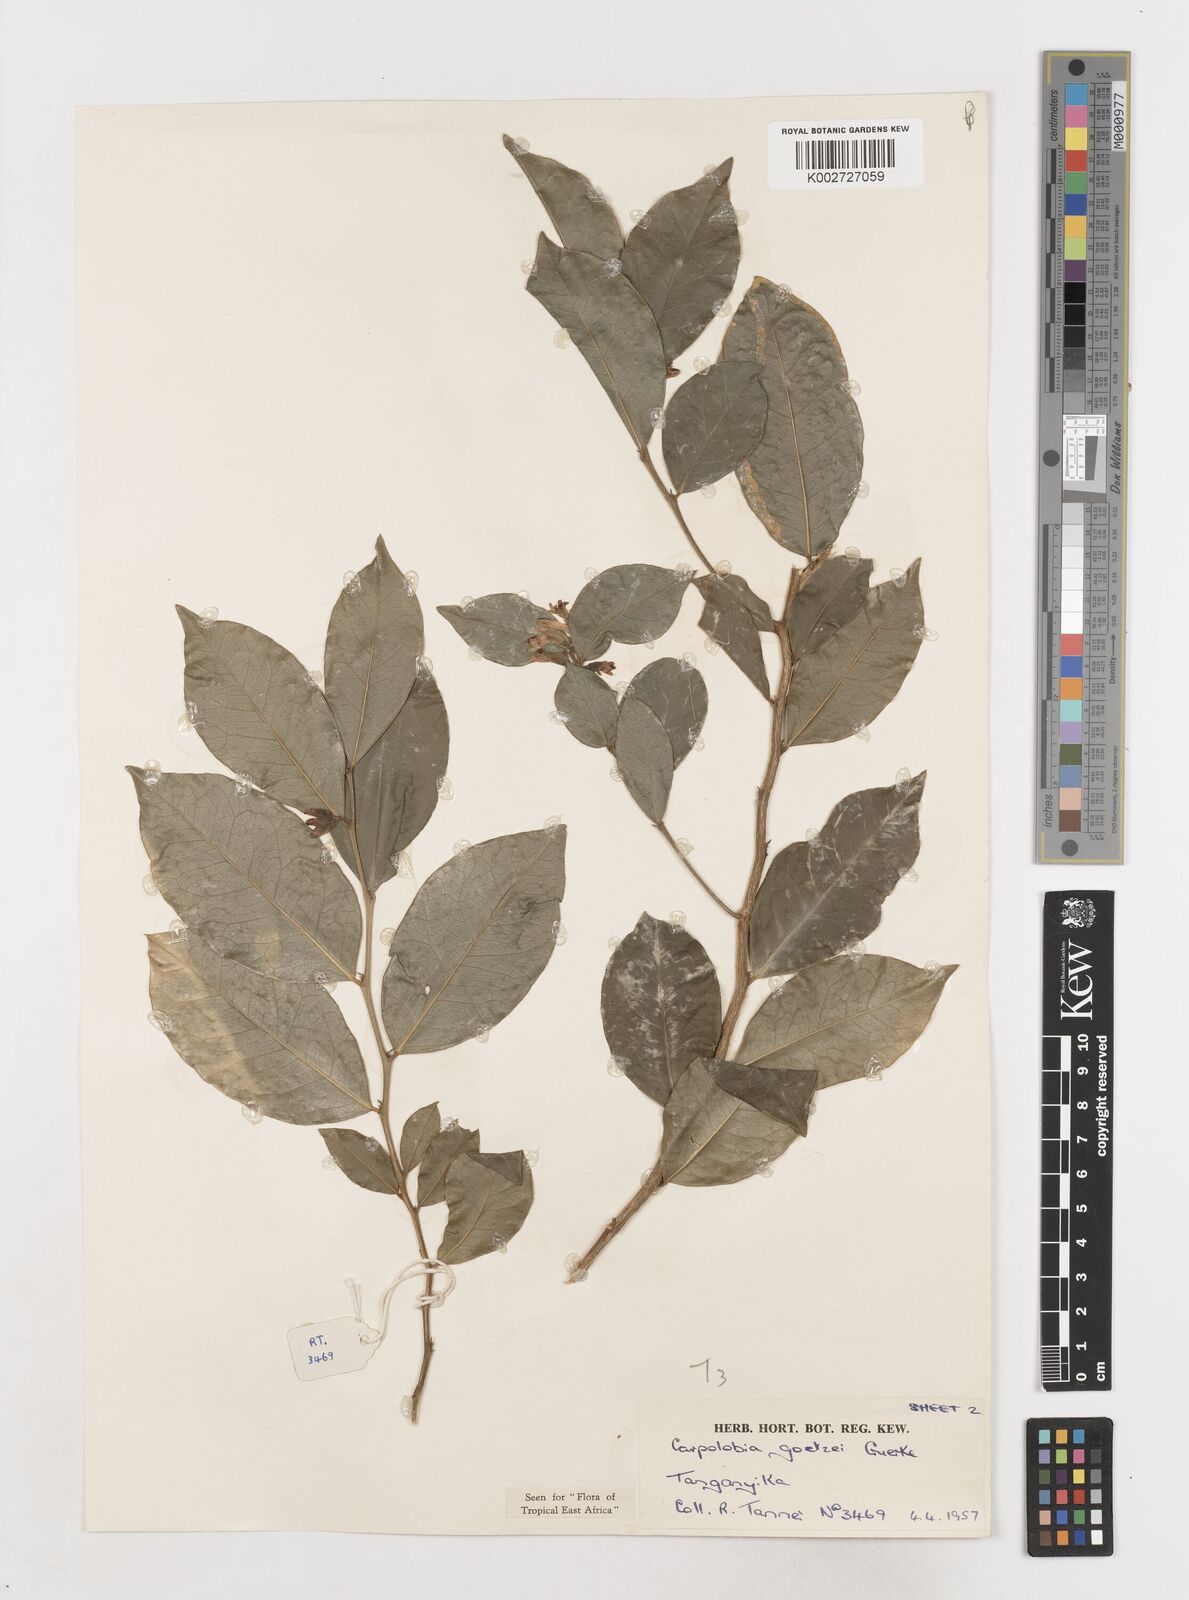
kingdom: Plantae
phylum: Tracheophyta
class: Magnoliopsida
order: Fabales
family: Polygalaceae
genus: Carpolobia
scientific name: Carpolobia goetzei
